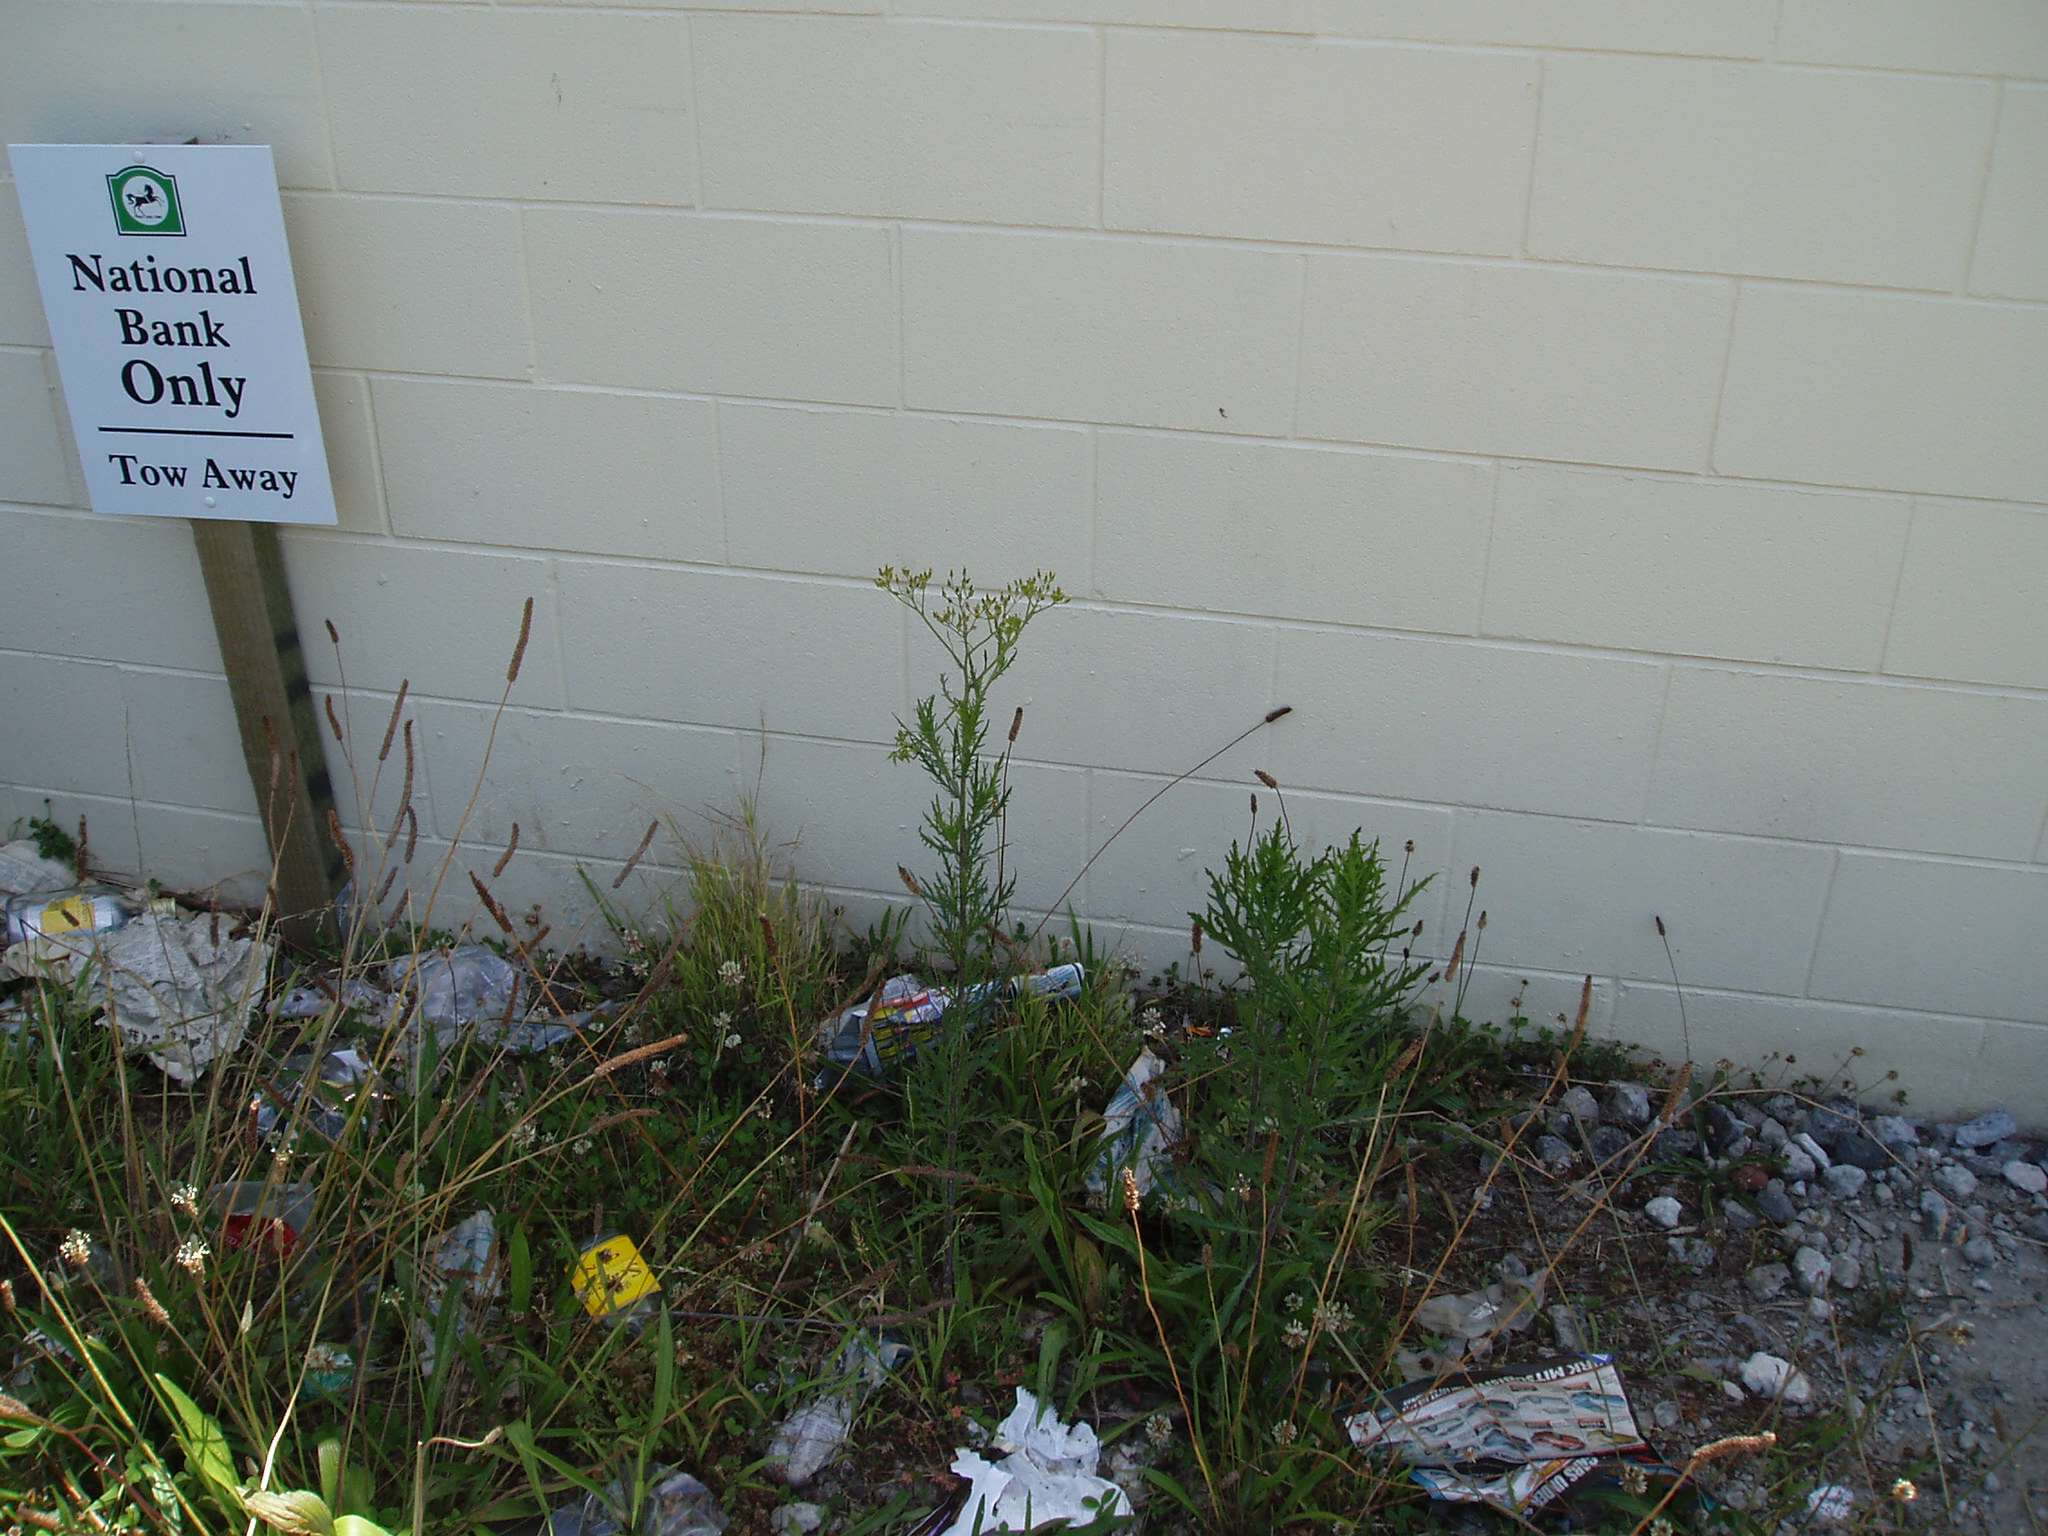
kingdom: Plantae
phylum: Tracheophyta
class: Magnoliopsida
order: Asterales
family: Asteraceae
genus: Senecio
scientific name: Senecio esleri
